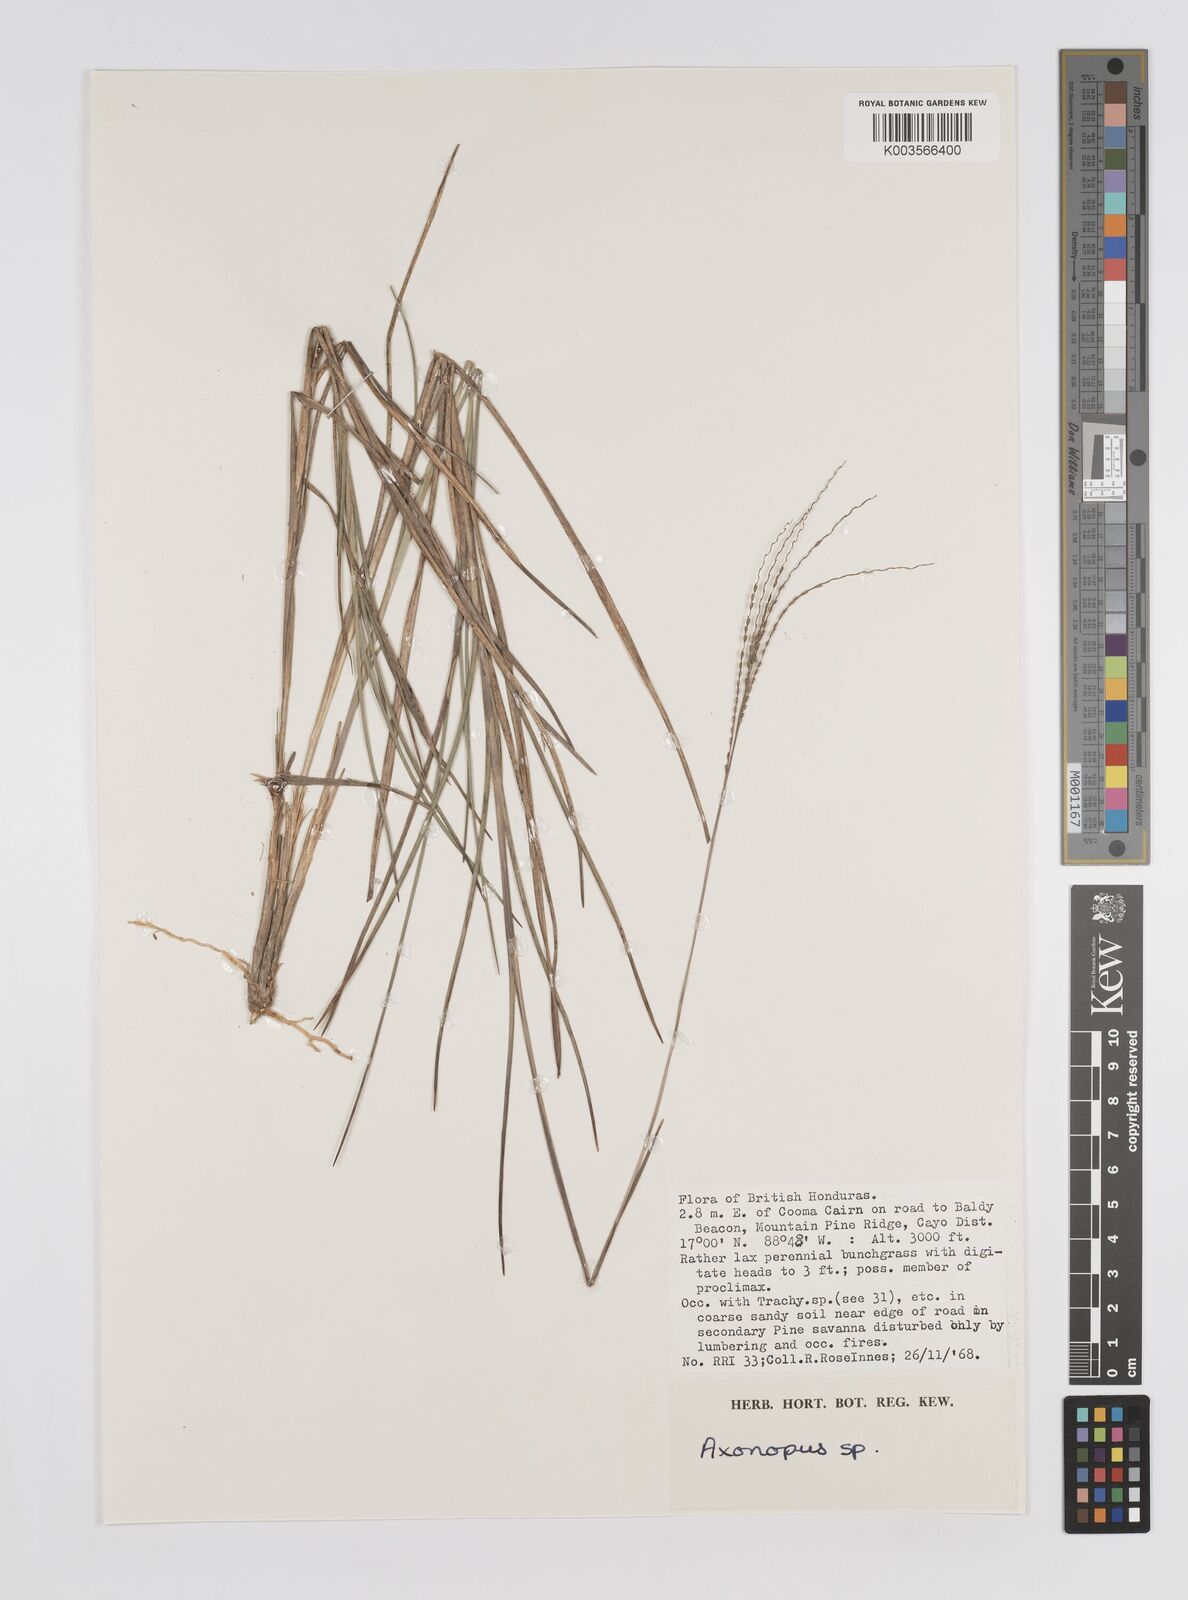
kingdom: Plantae
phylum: Tracheophyta
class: Liliopsida
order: Poales
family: Poaceae
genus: Axonopus
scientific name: Axonopus
